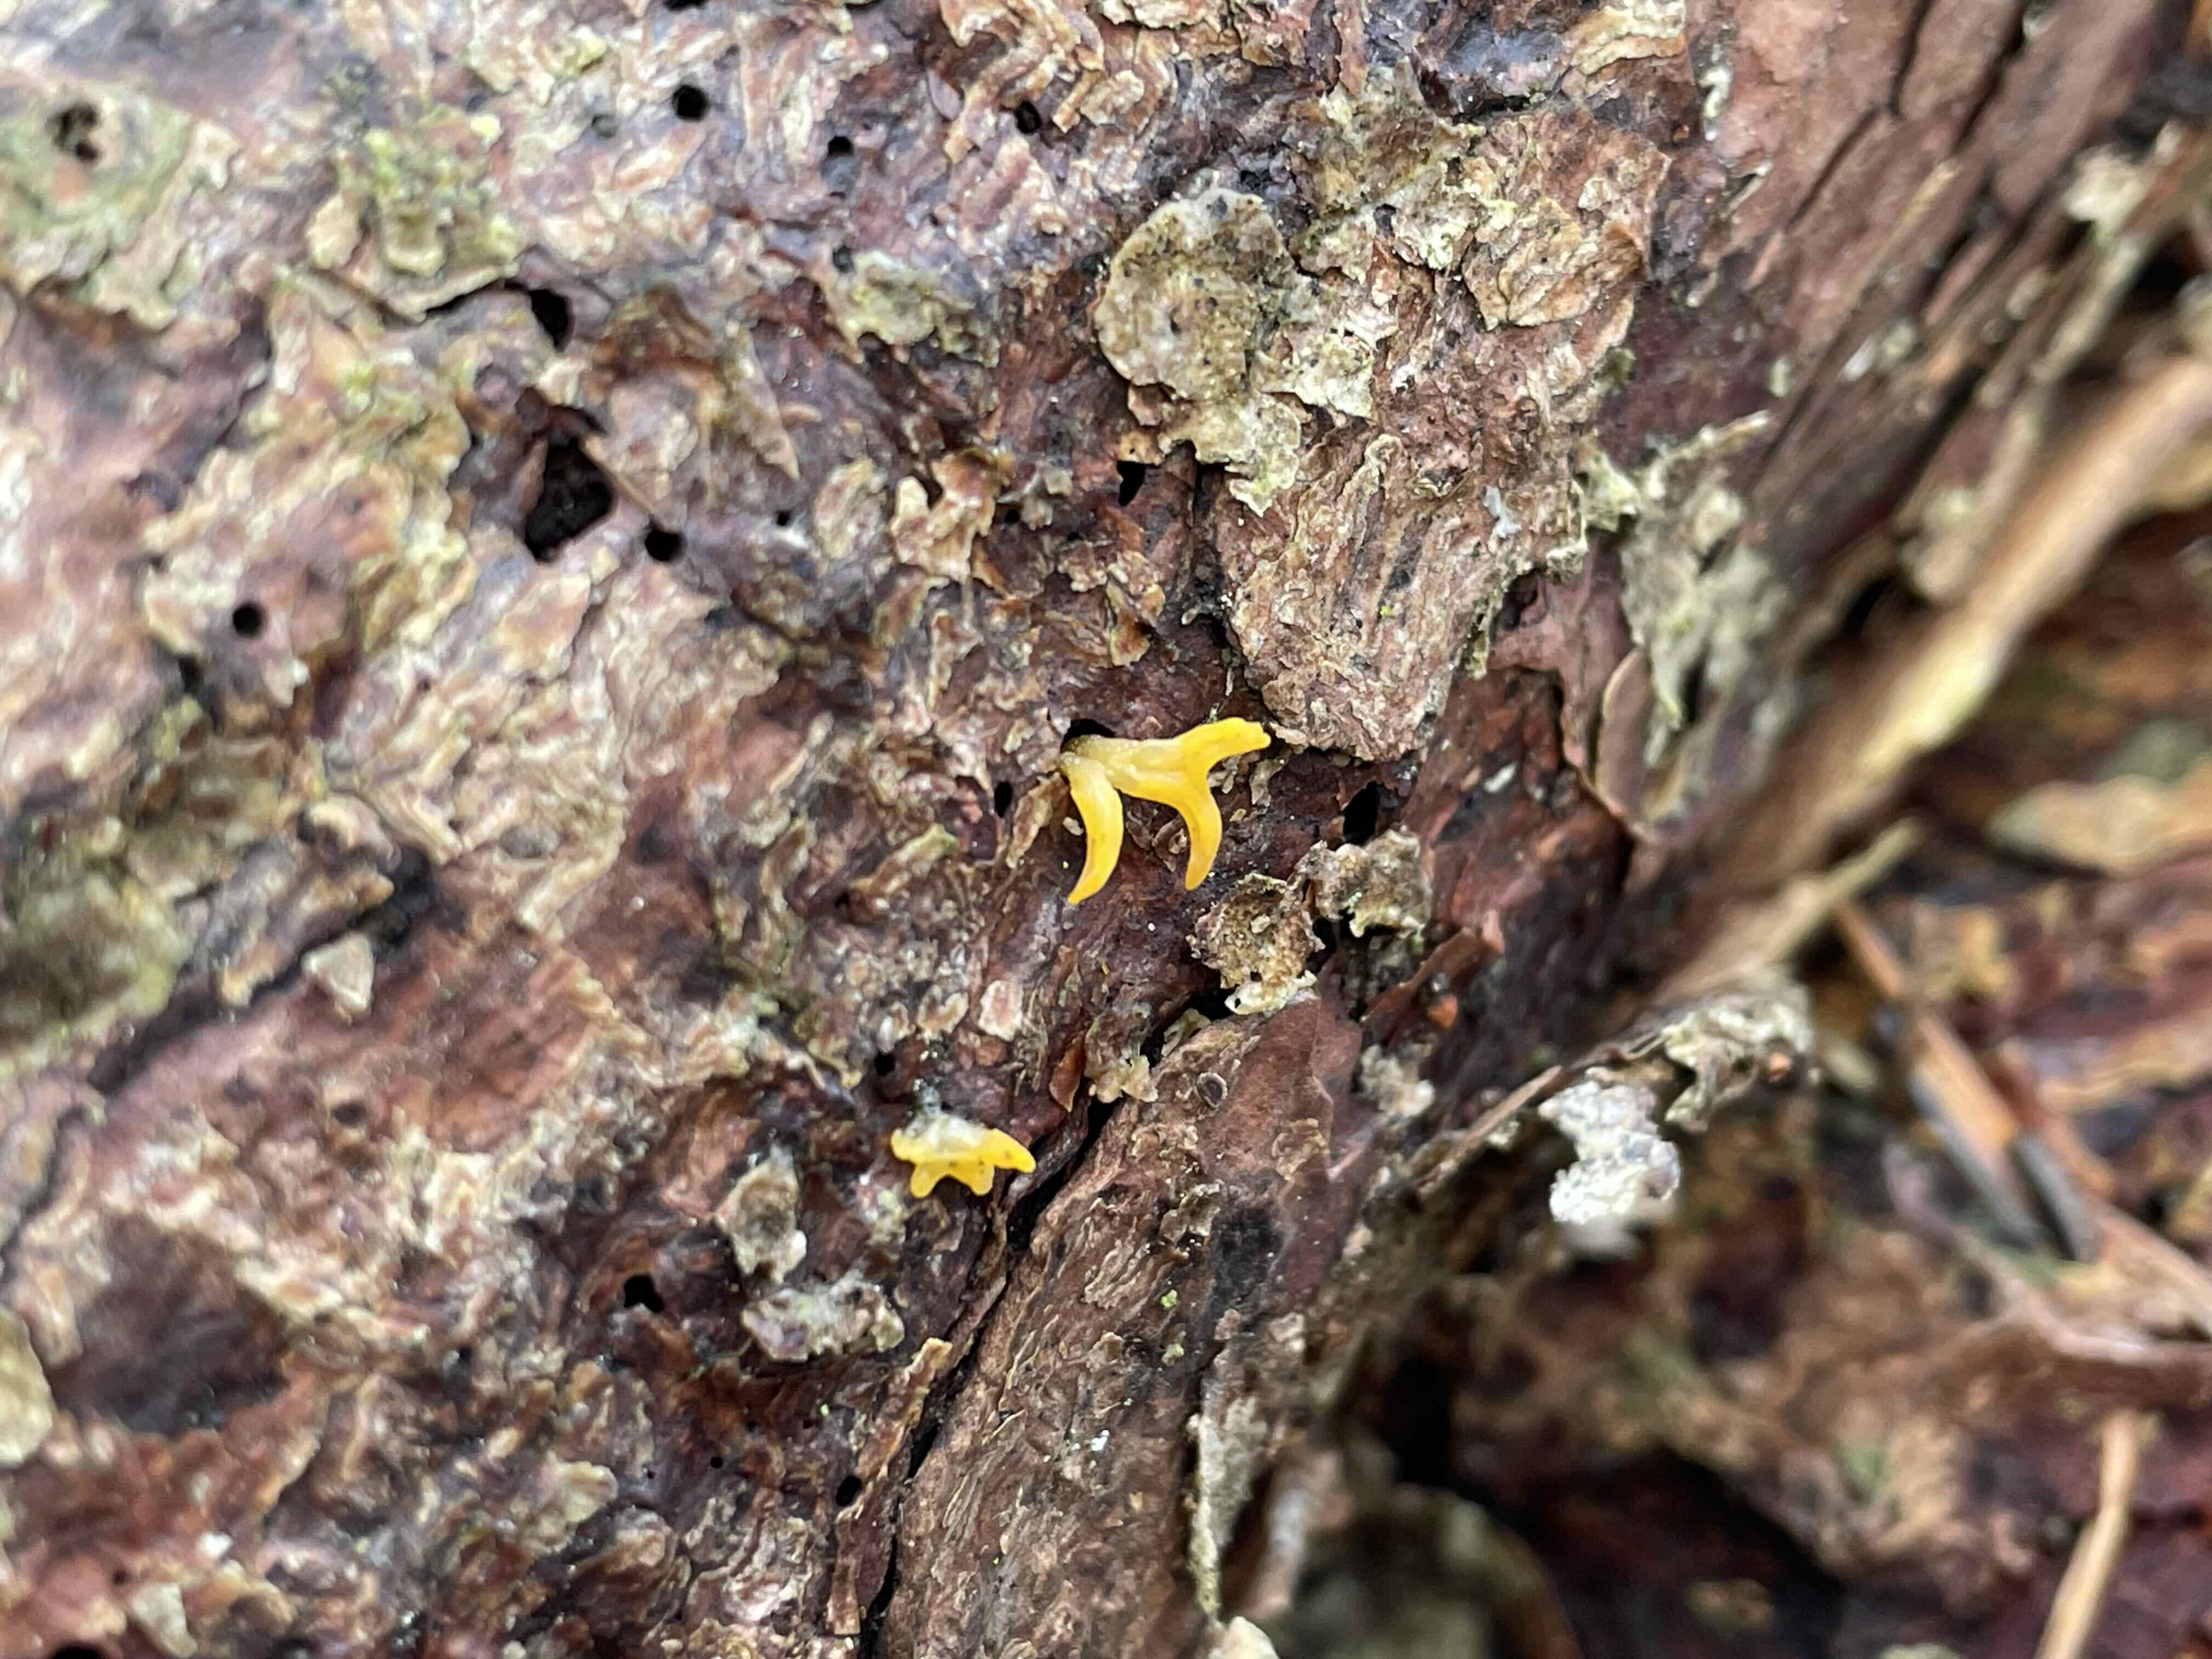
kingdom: Fungi
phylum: Basidiomycota
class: Dacrymycetes
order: Dacrymycetales
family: Dacrymycetaceae
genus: Calocera
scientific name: Calocera furcata
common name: fyrre-guldgaffel
